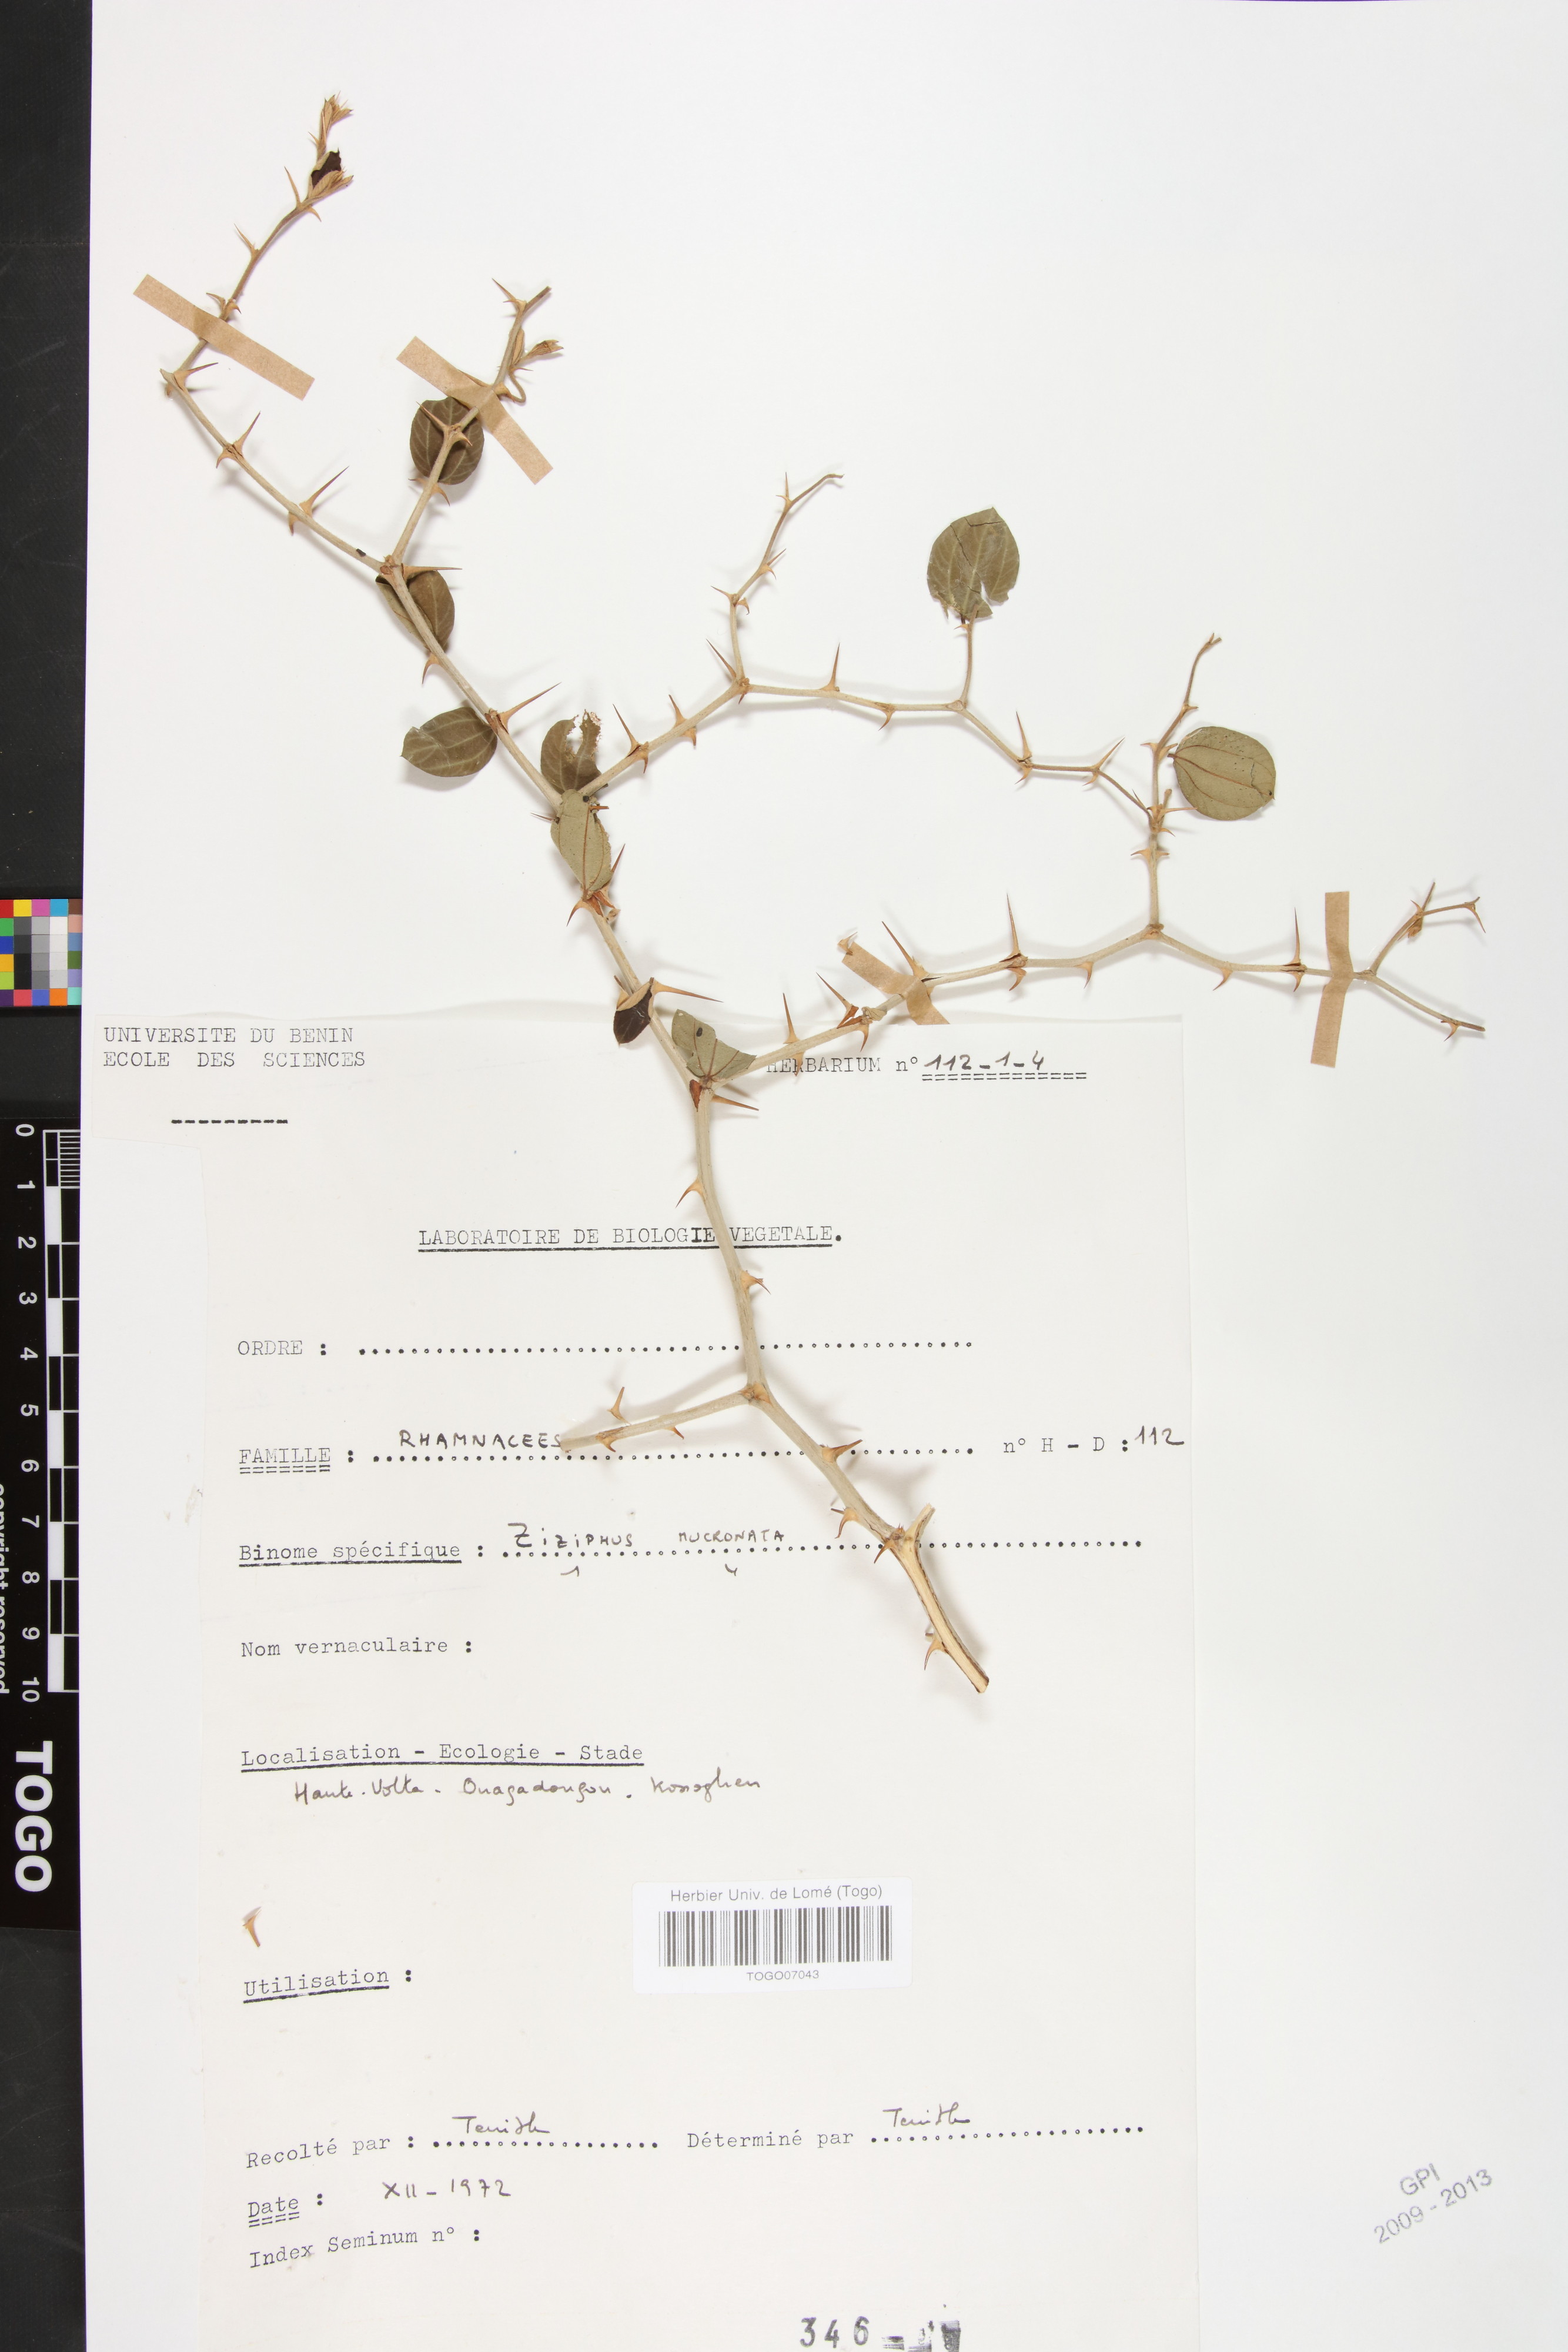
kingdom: Plantae
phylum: Tracheophyta
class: Magnoliopsida
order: Rosales
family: Rhamnaceae
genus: Ziziphus
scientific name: Ziziphus mucronata
